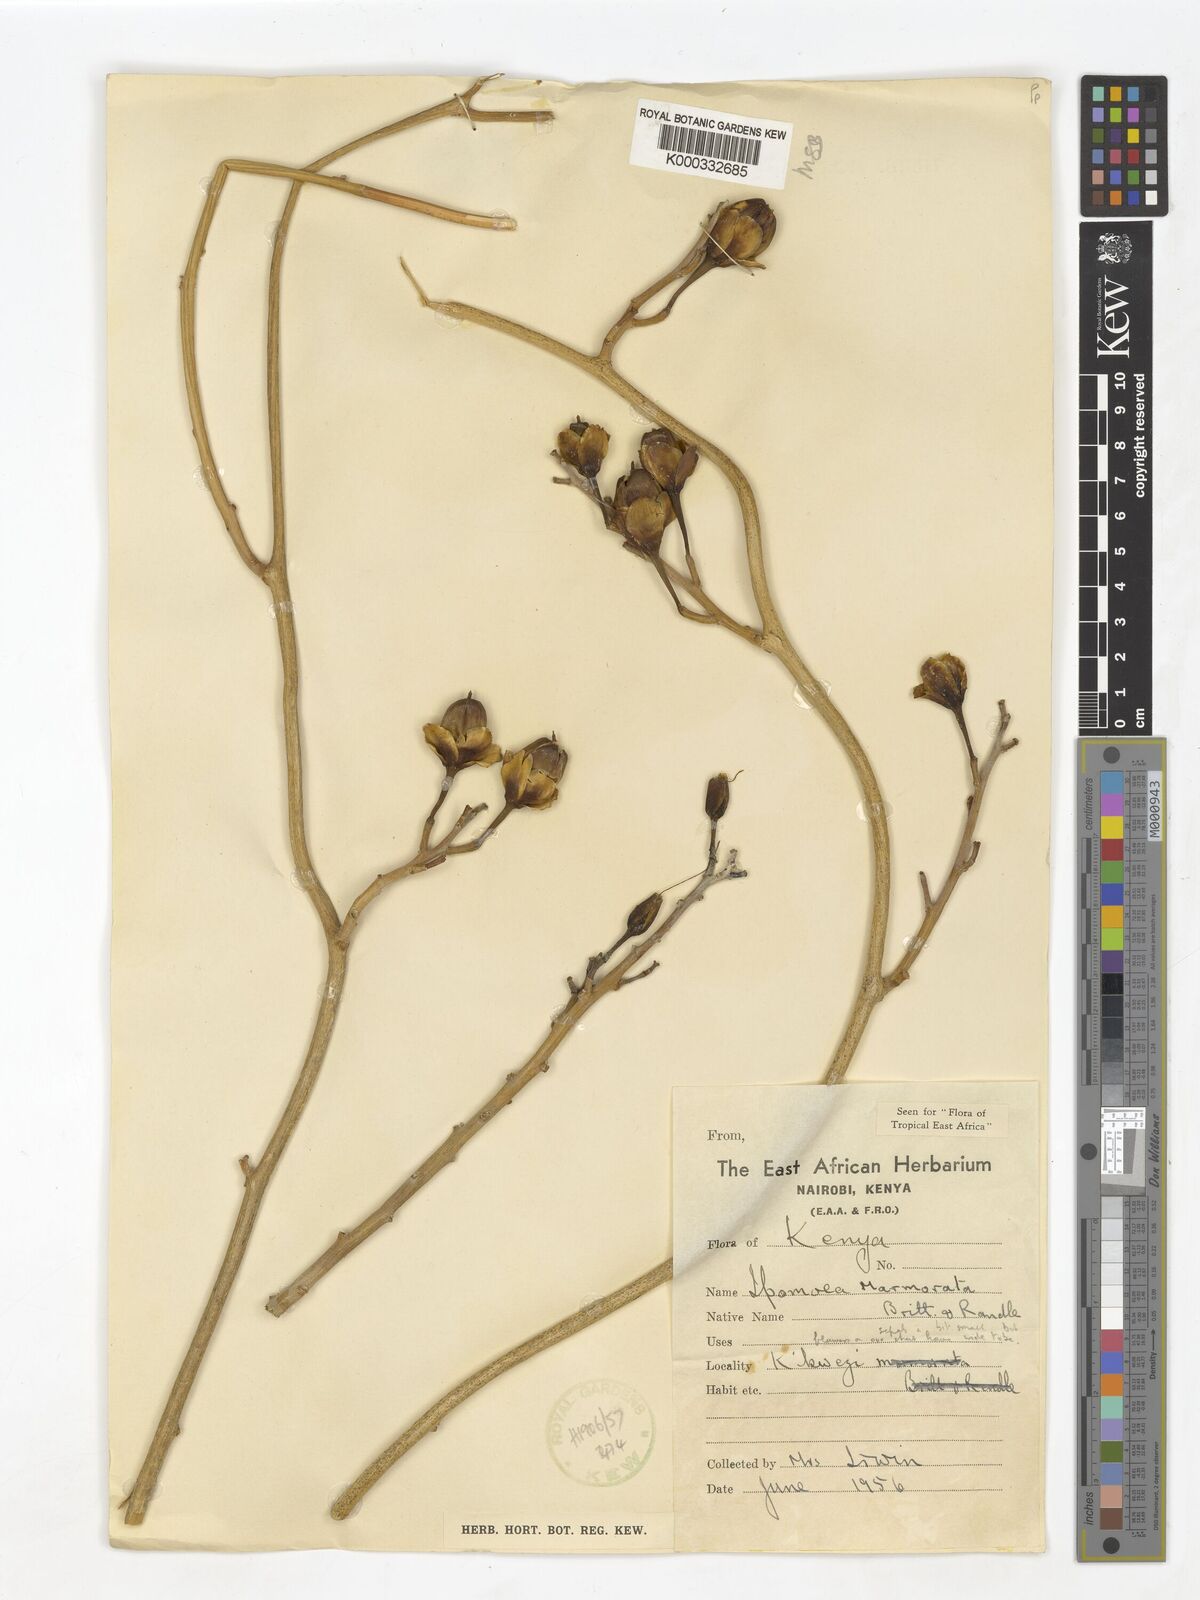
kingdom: Plantae
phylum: Tracheophyta
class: Magnoliopsida
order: Solanales
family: Convolvulaceae
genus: Ipomoea
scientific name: Ipomoea lapidosa
